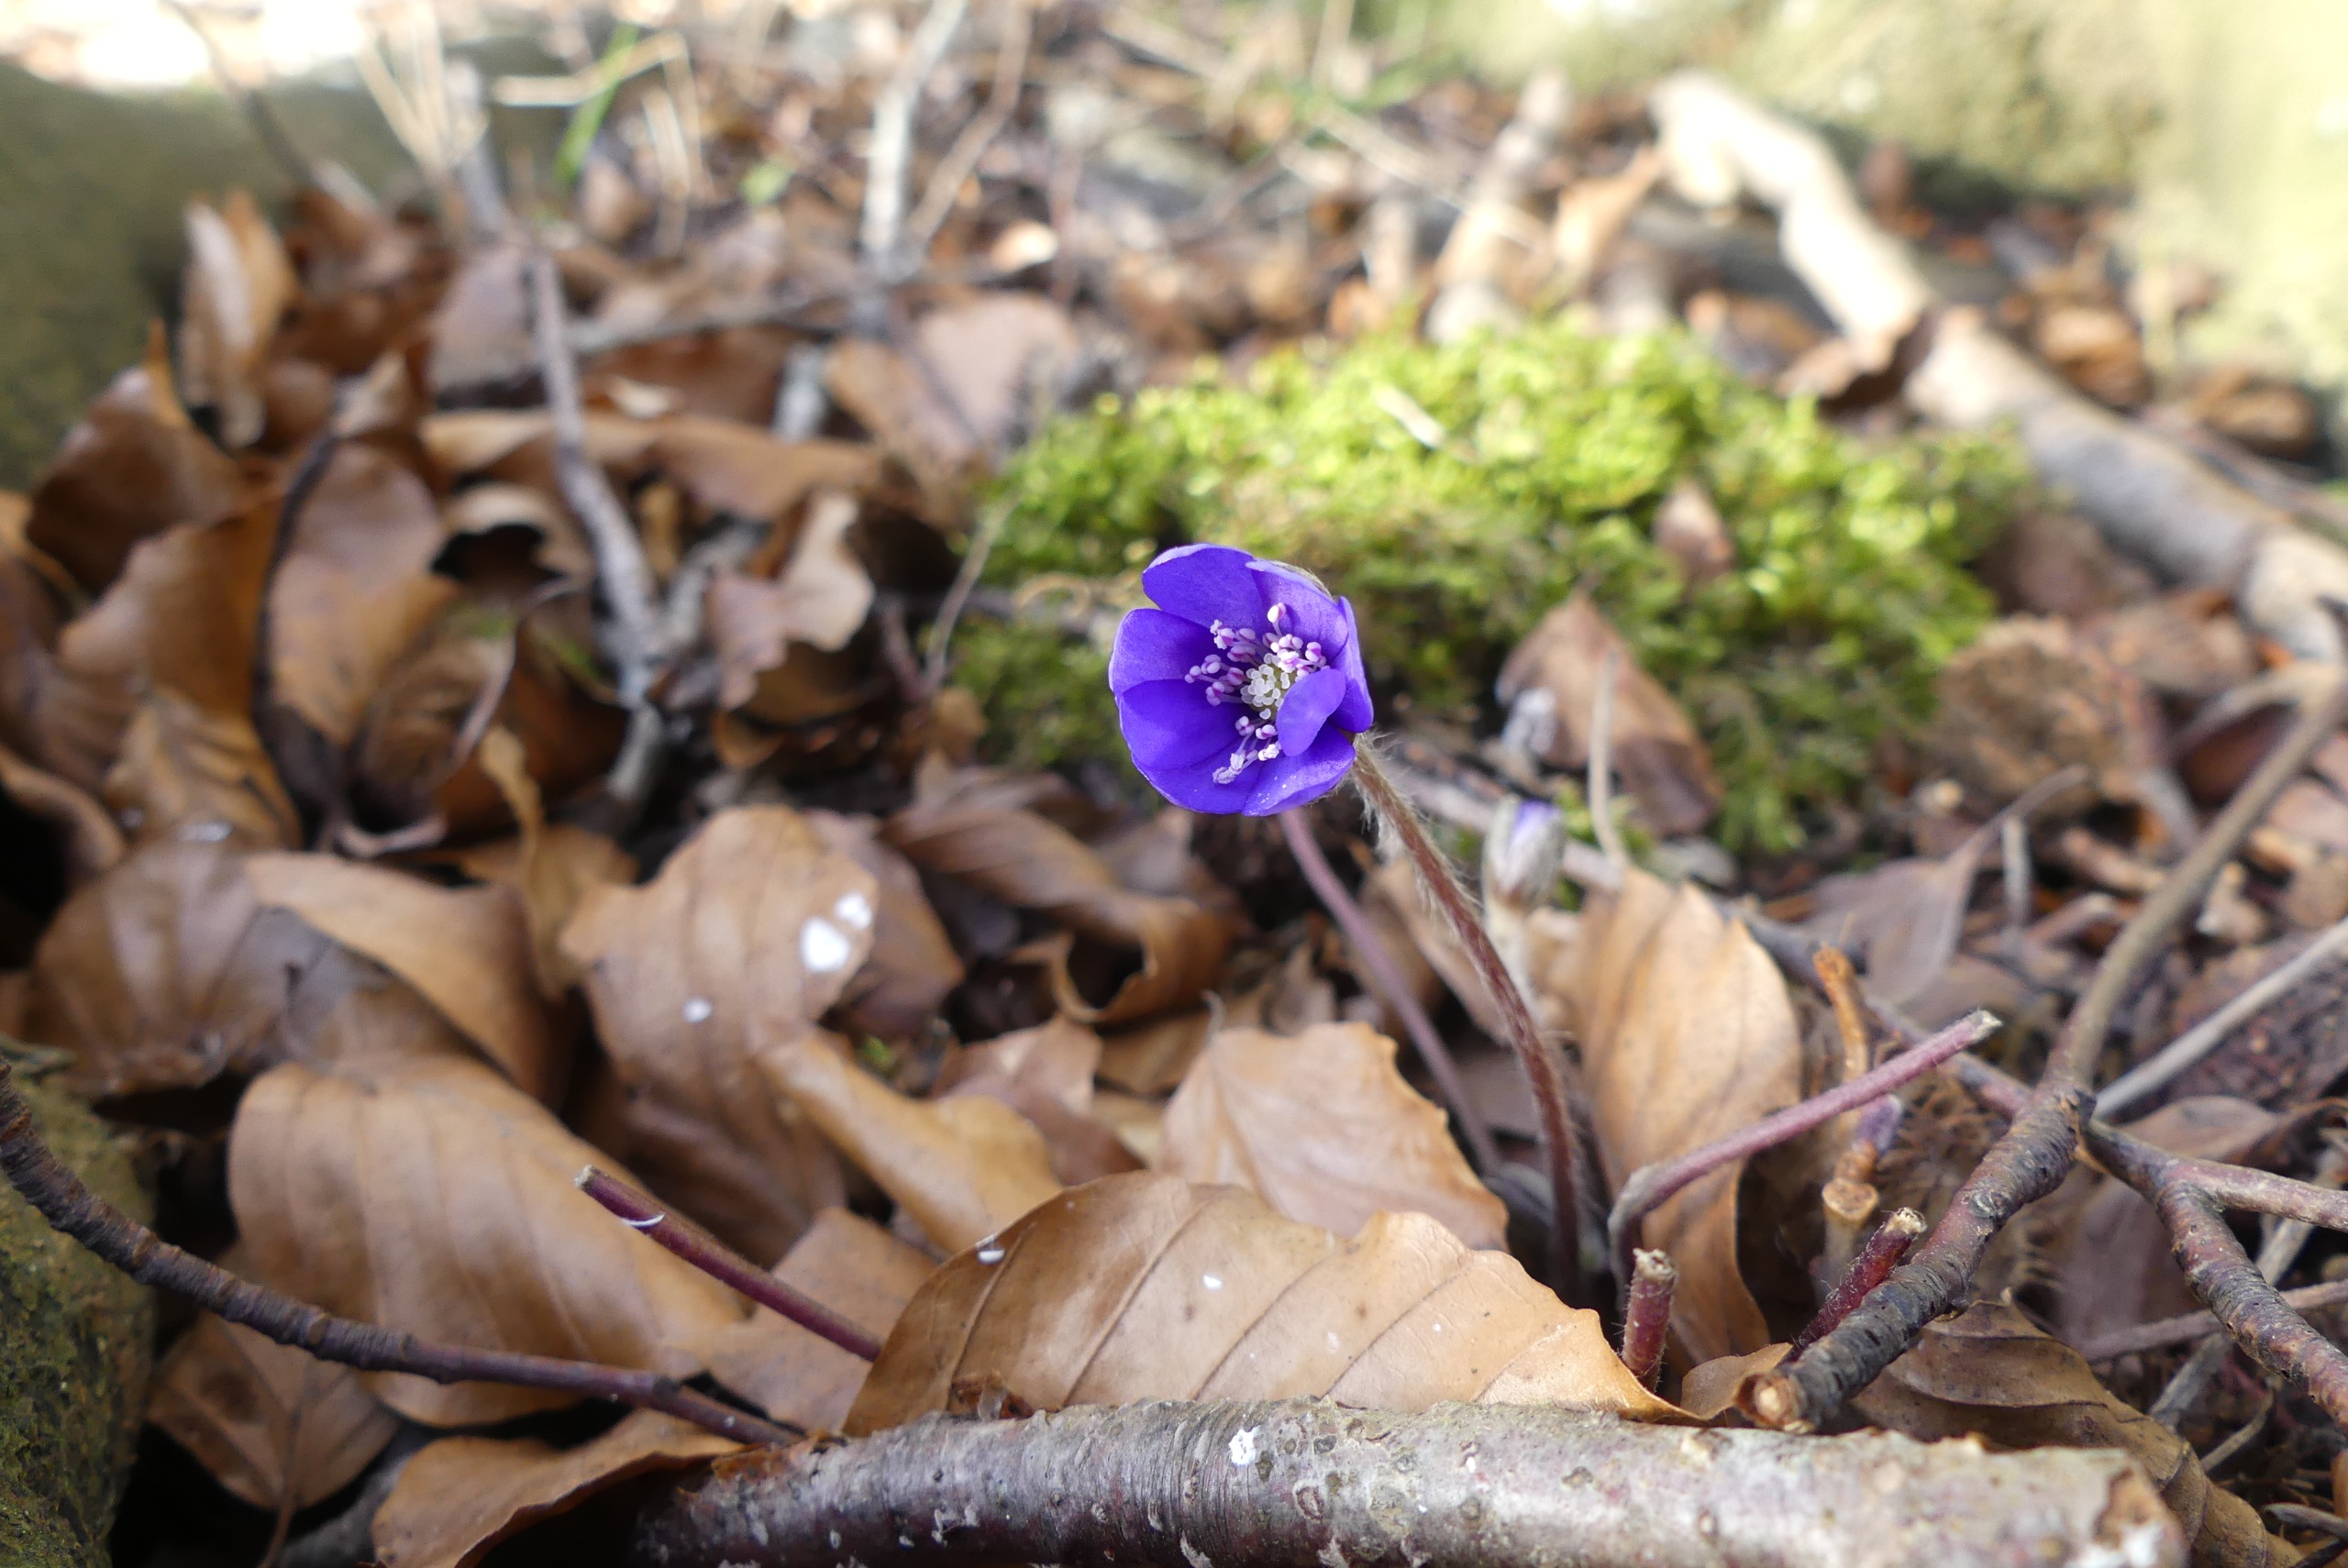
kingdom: Plantae
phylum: Tracheophyta
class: Magnoliopsida
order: Ranunculales
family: Ranunculaceae
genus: Hepatica
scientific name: Hepatica nobilis
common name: Blå anemone
